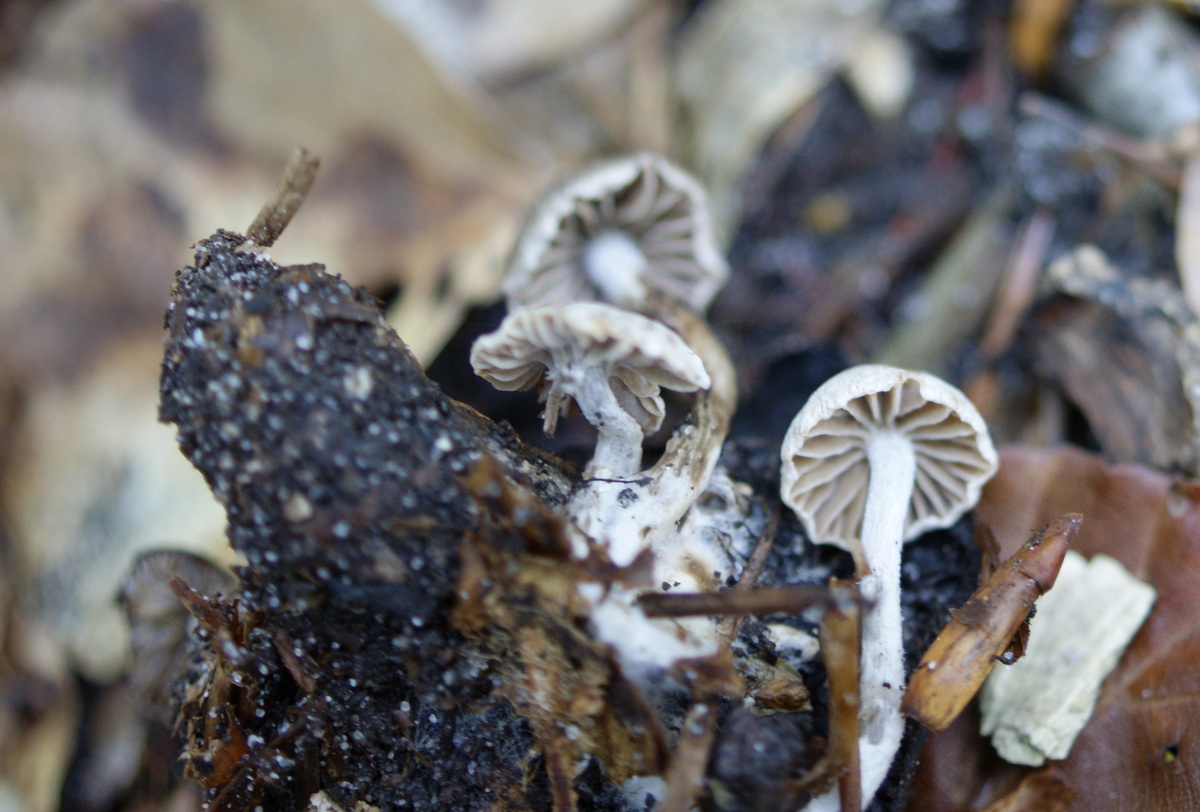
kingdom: Fungi
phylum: Basidiomycota
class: Agaricomycetes
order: Agaricales
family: Lyophyllaceae
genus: Asterophora
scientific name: Asterophora parasitica
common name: grå snyltehat
